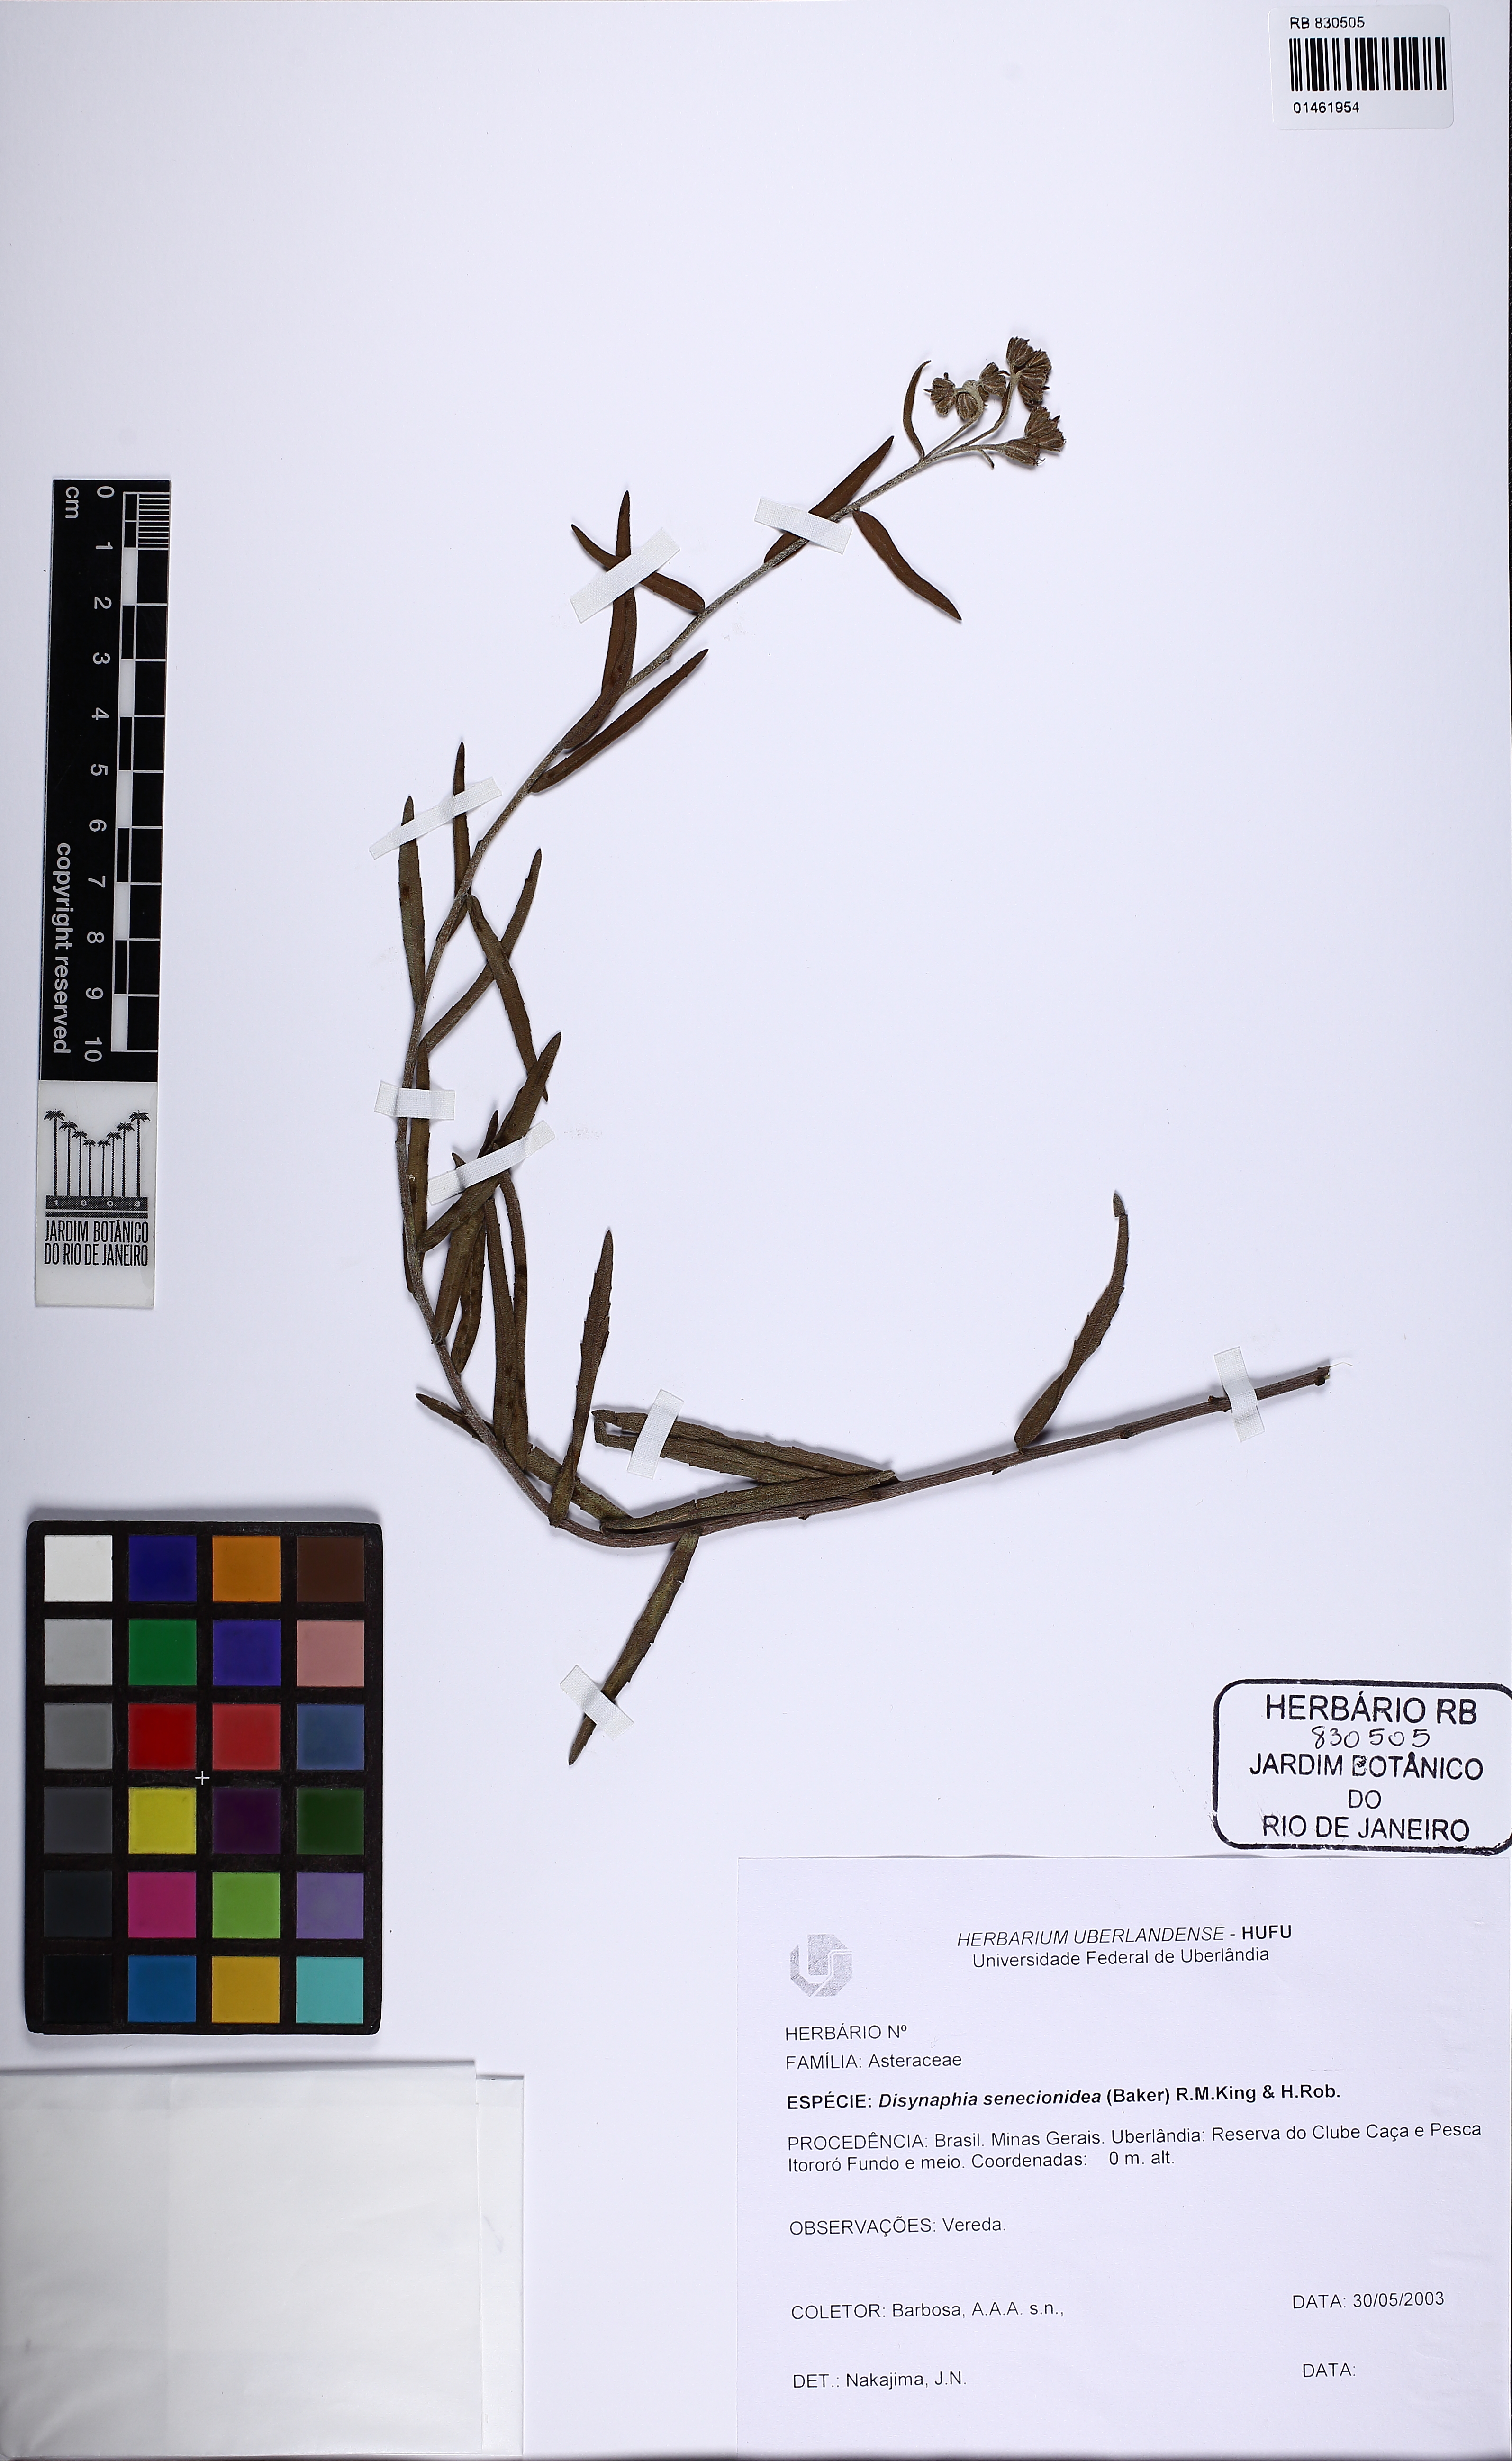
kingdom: Plantae
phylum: Tracheophyta
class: Magnoliopsida
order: Asterales
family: Asteraceae
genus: Disynaphia
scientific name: Disynaphia senecionidea
